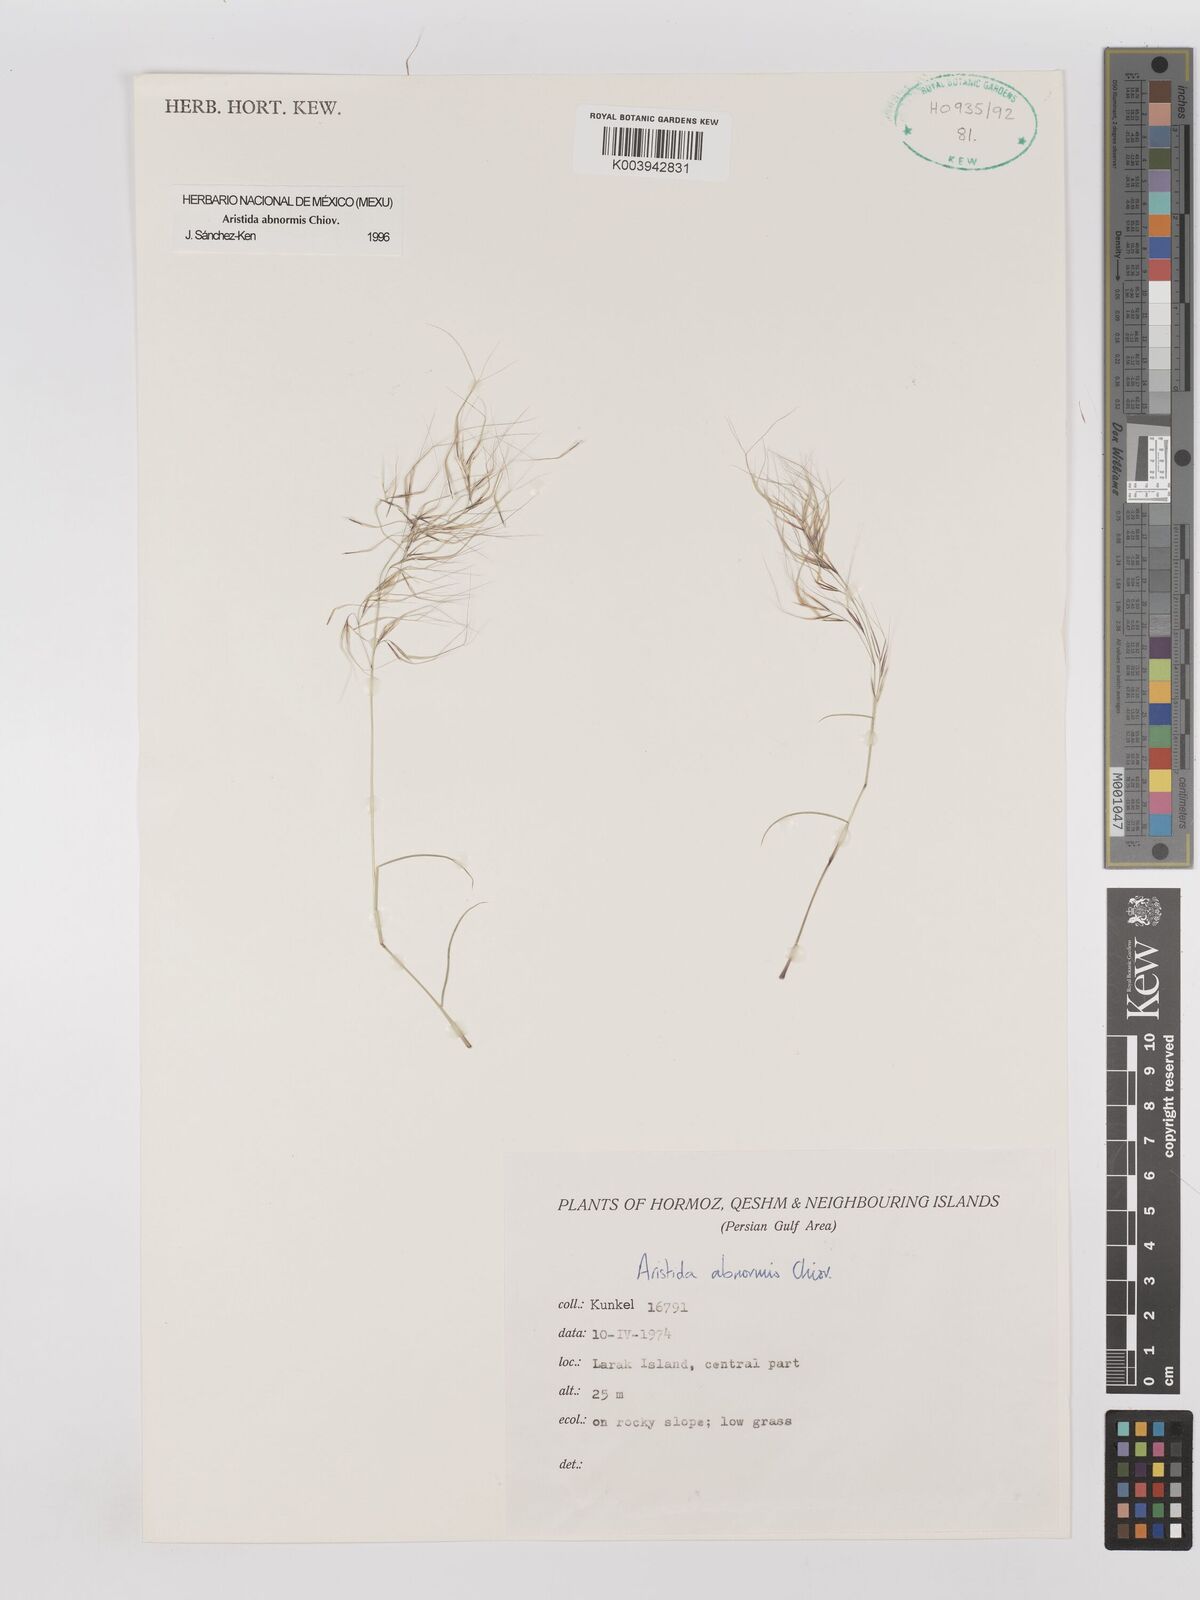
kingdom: Plantae
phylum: Tracheophyta
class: Liliopsida
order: Poales
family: Poaceae
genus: Aristida
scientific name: Aristida abnormis
